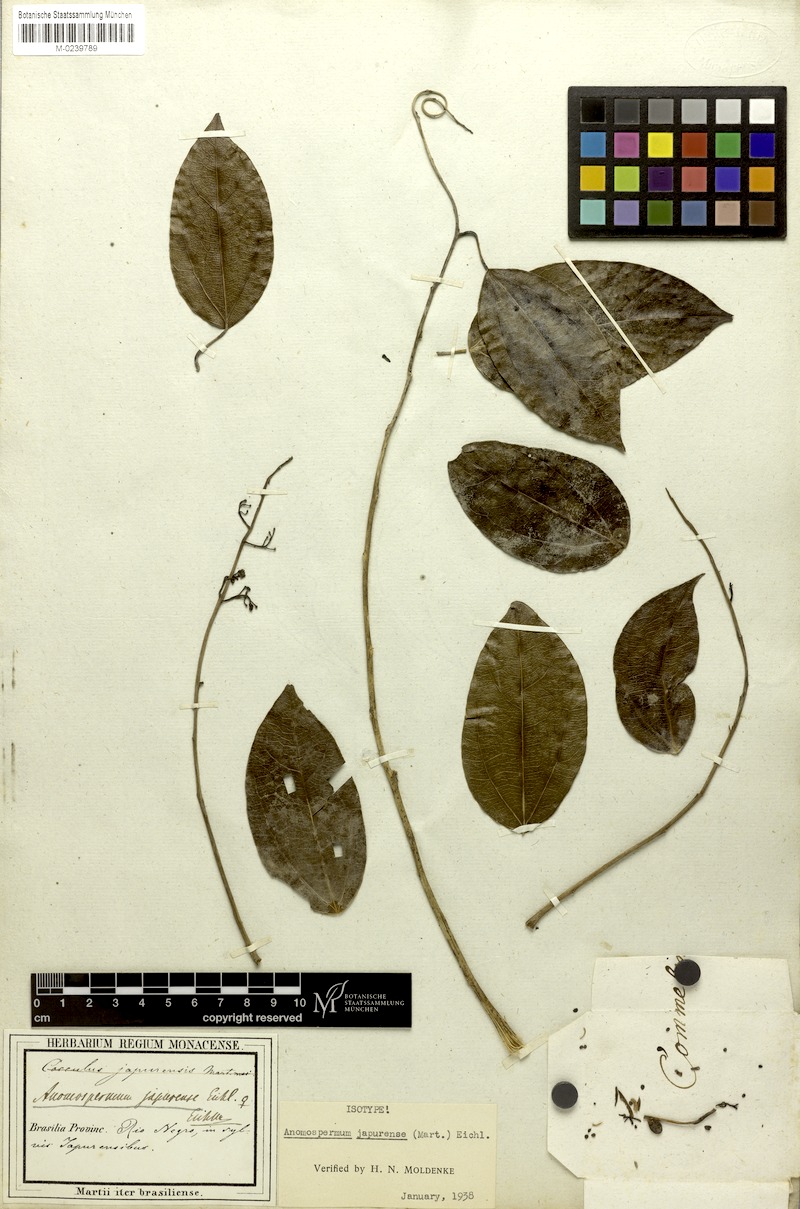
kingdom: Plantae
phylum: Tracheophyta
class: Magnoliopsida
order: Ranunculales
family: Menispermaceae
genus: Borismene
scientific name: Borismene japurensis
